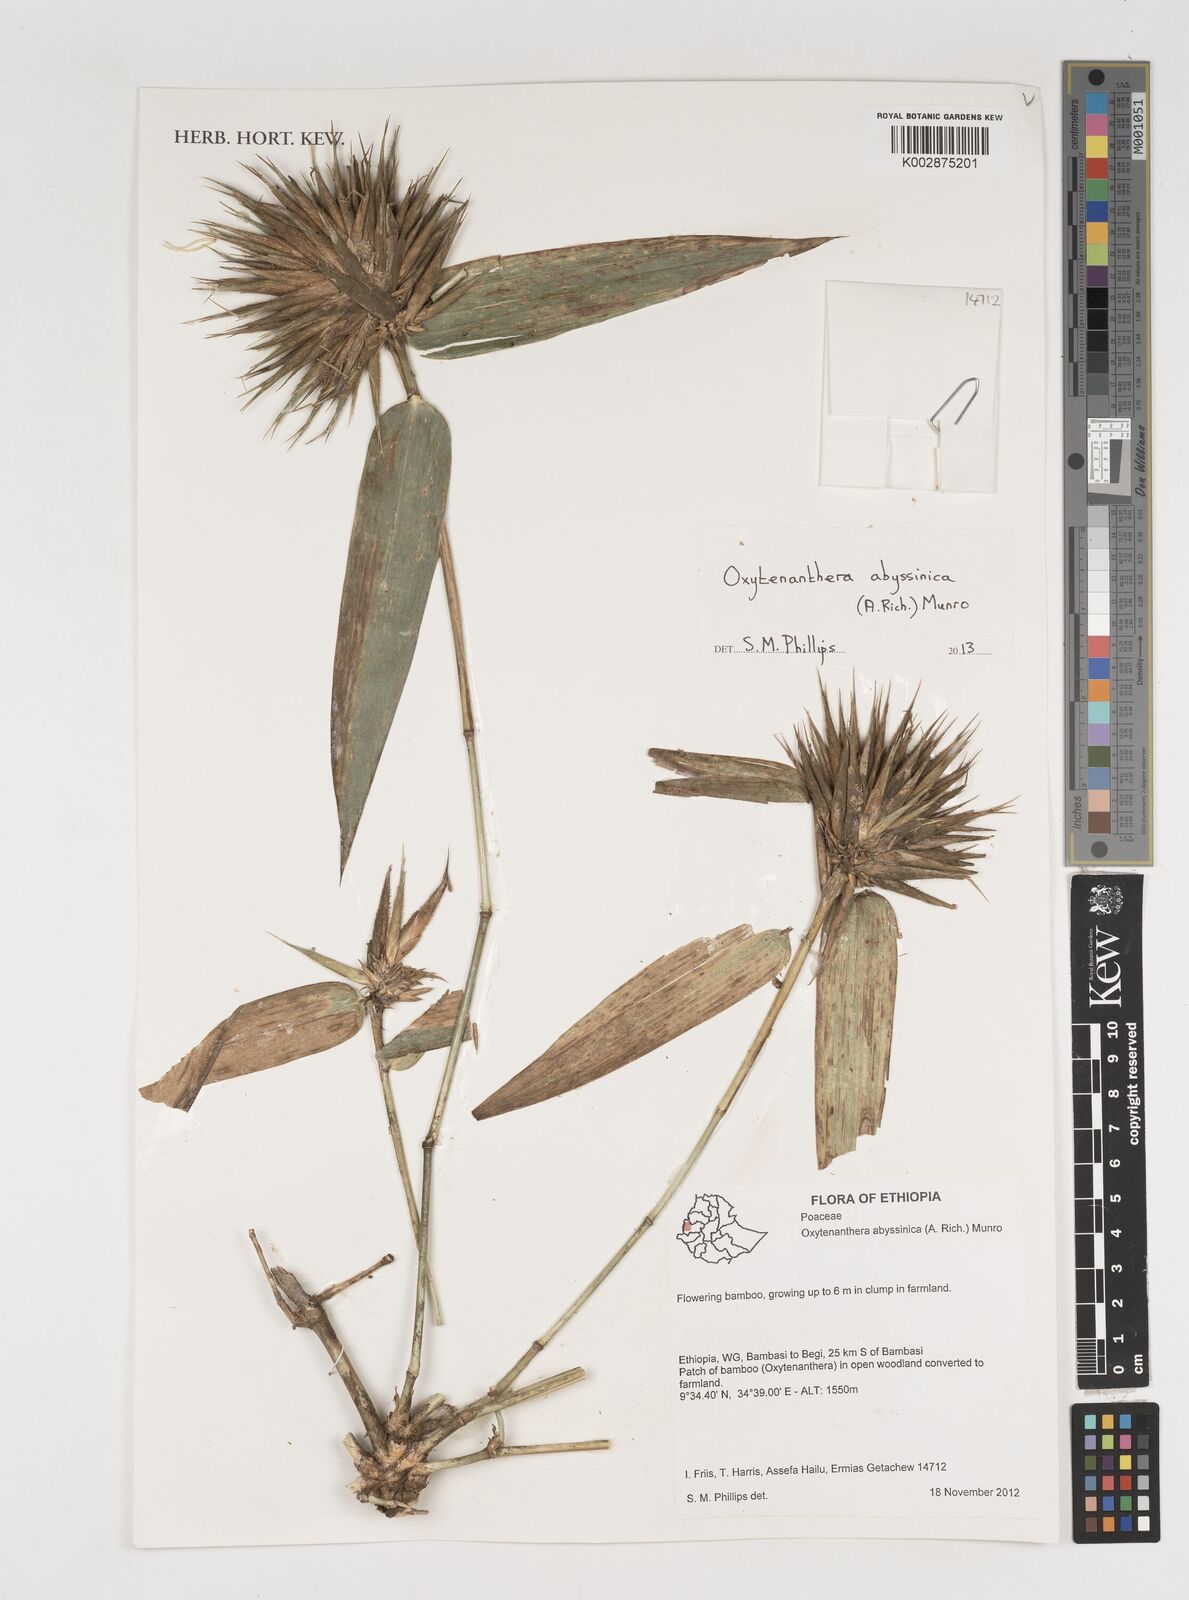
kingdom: Plantae
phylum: Tracheophyta
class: Liliopsida
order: Poales
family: Poaceae
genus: Oxytenanthera
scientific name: Oxytenanthera abyssinica
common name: Wine bamboo
